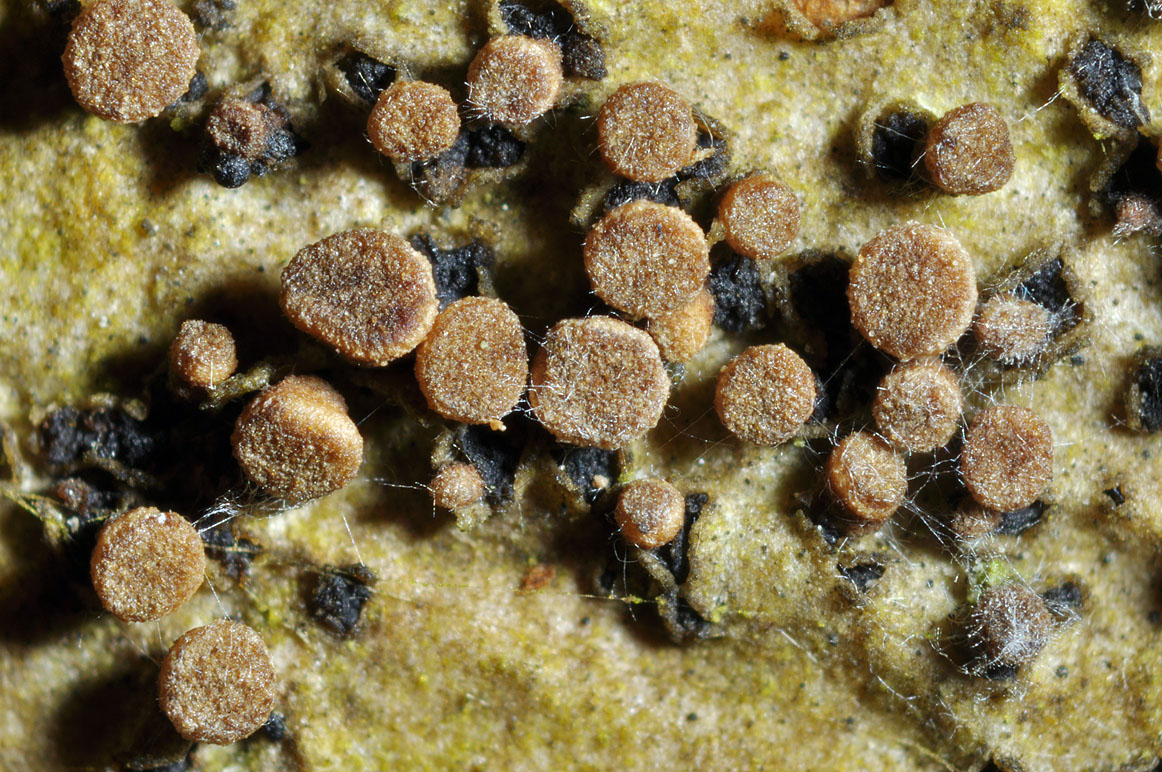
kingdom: Fungi
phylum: Ascomycota
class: Leotiomycetes
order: Helotiales
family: Dermateaceae
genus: Pezicula
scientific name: Pezicula rostrupii
